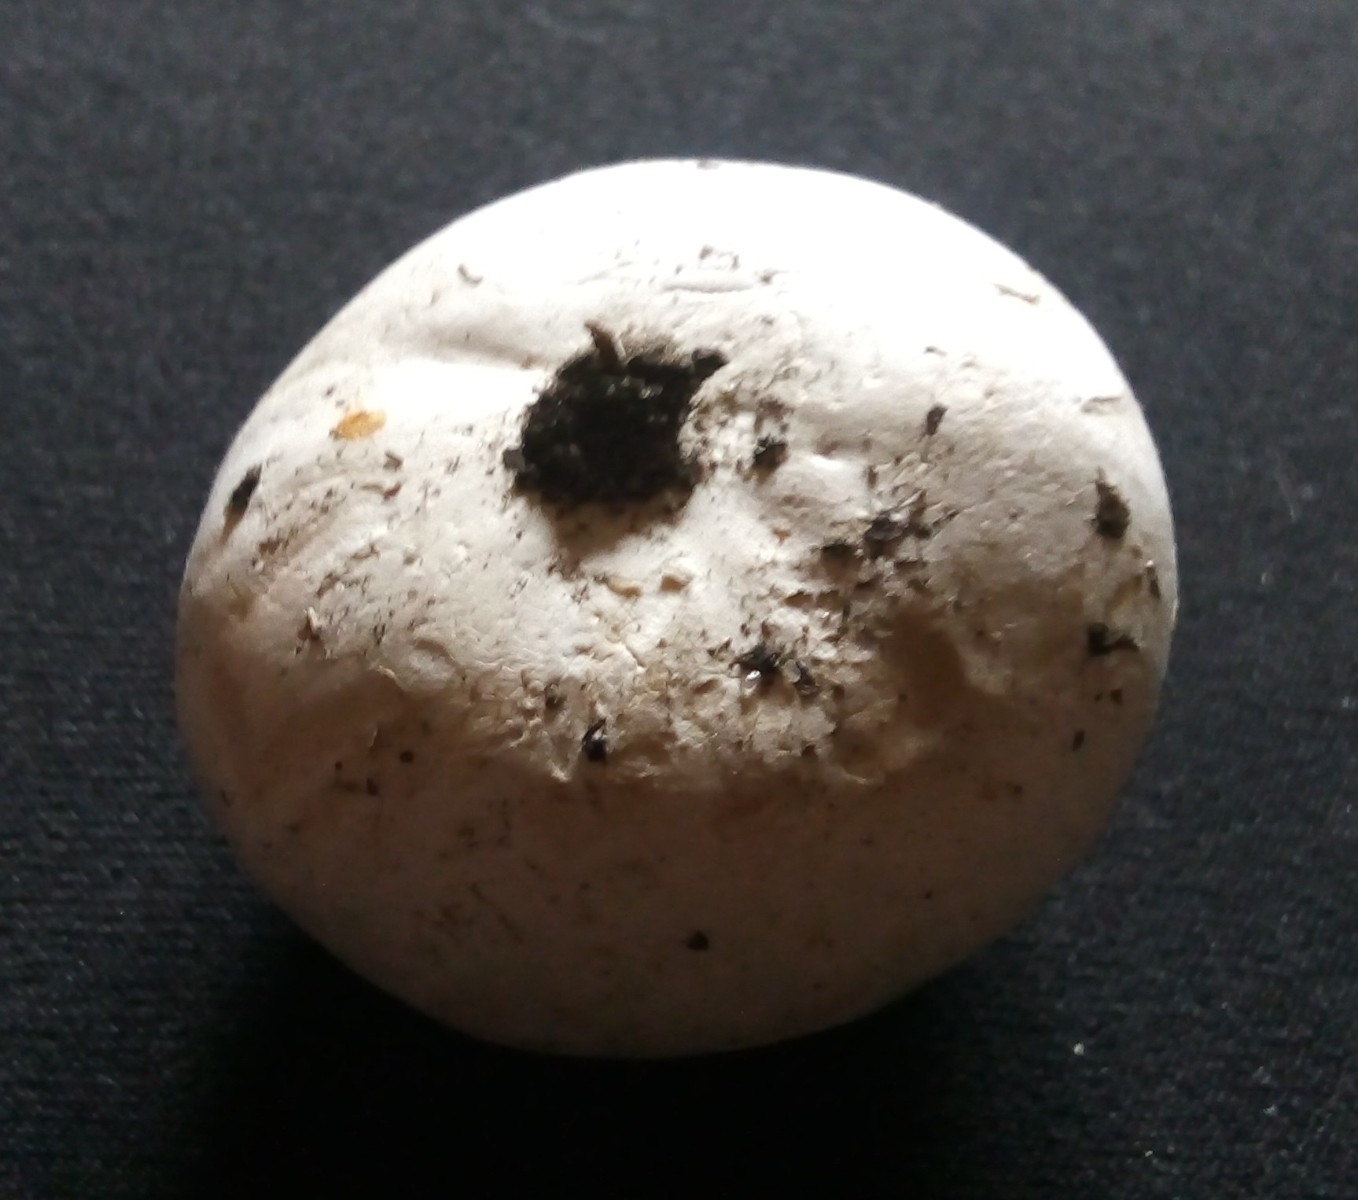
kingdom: Fungi
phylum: Basidiomycota
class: Agaricomycetes
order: Agaricales
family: Lycoperdaceae
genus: Bovista
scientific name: Bovista
